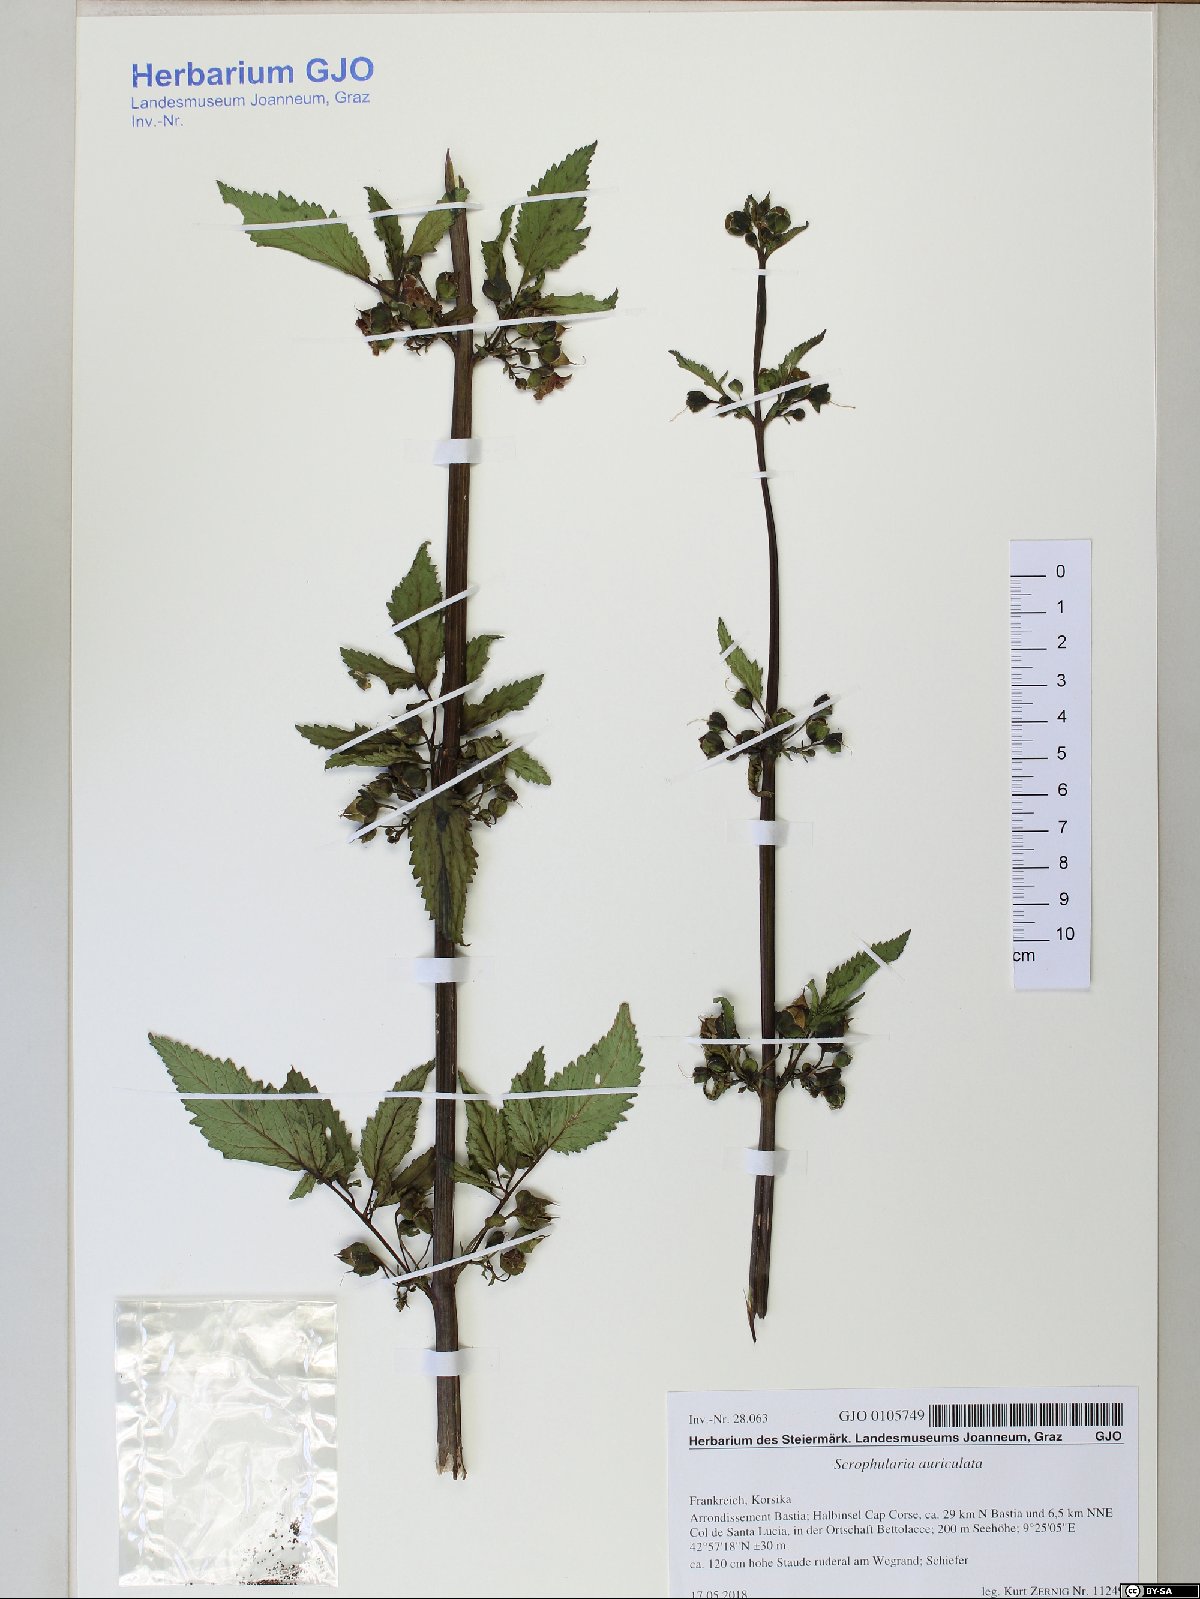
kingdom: Plantae
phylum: Tracheophyta
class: Magnoliopsida
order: Lamiales
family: Scrophulariaceae
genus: Scrophularia
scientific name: Scrophularia auriculata
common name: Water betony
